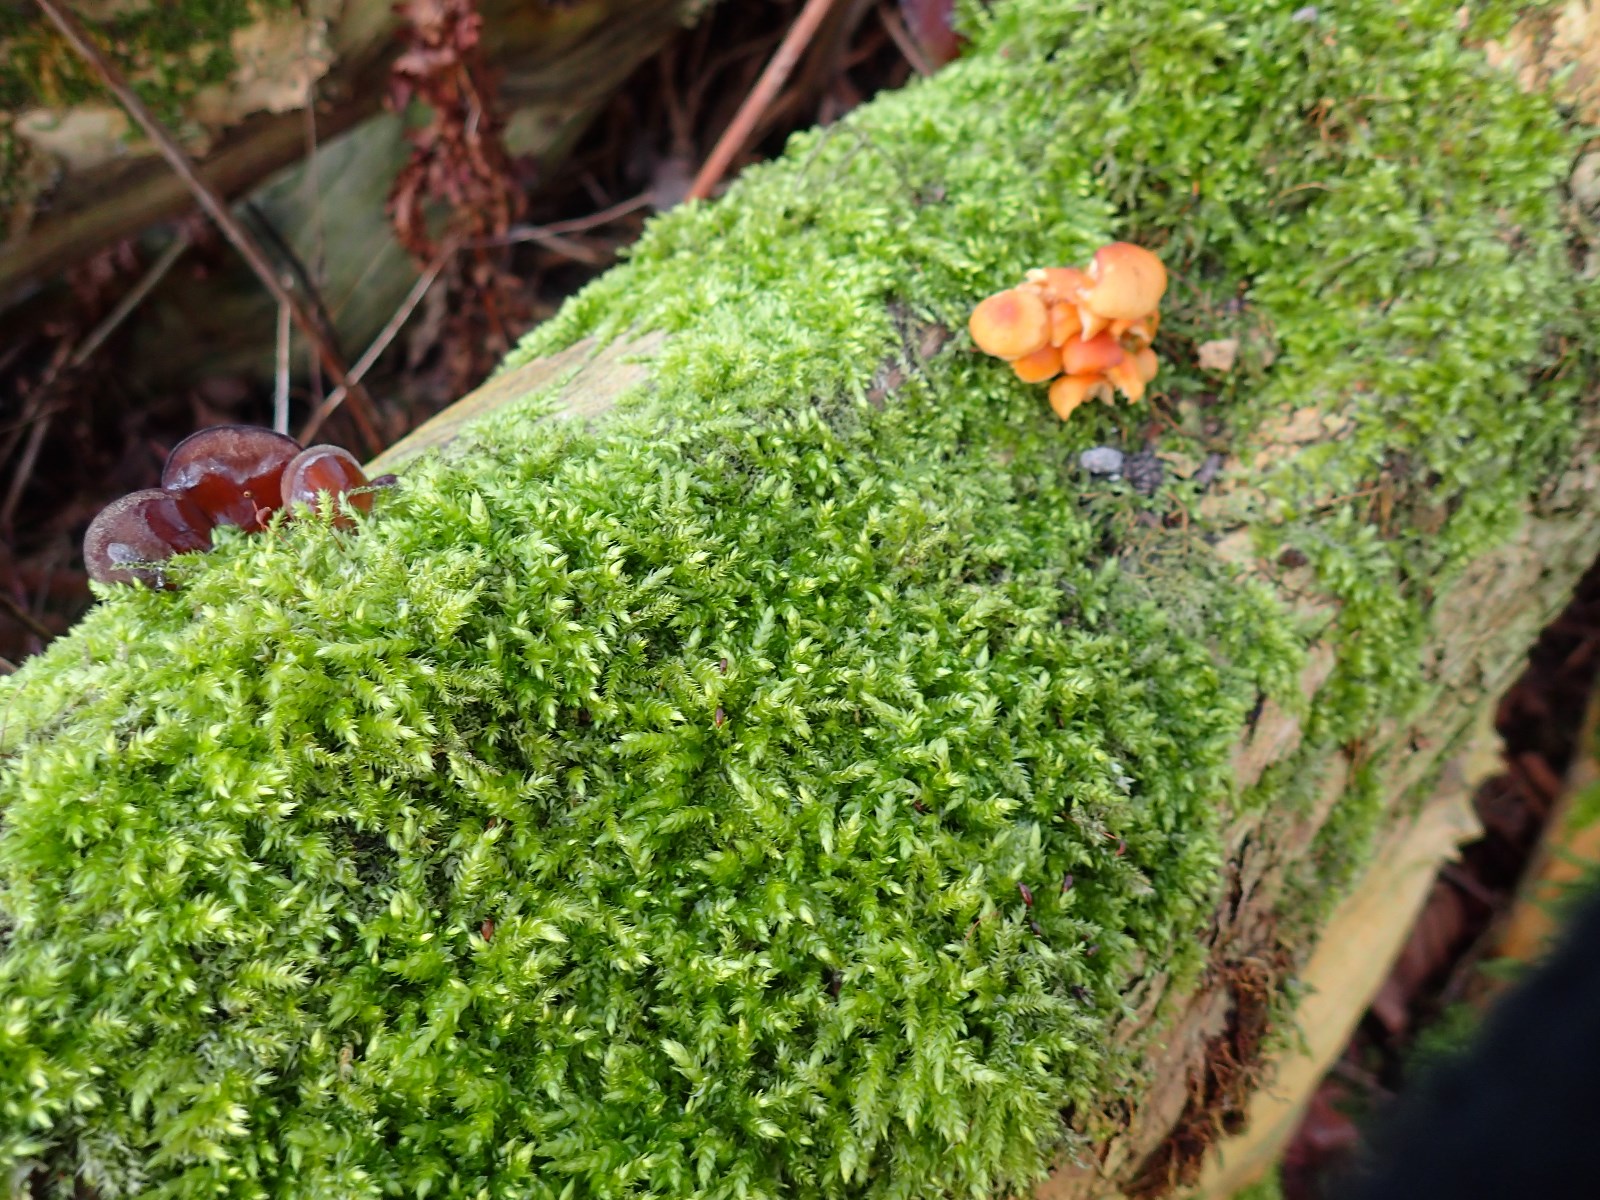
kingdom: Fungi
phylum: Basidiomycota
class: Agaricomycetes
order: Agaricales
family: Physalacriaceae
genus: Flammulina
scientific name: Flammulina velutipes
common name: gul fløjlsfod
